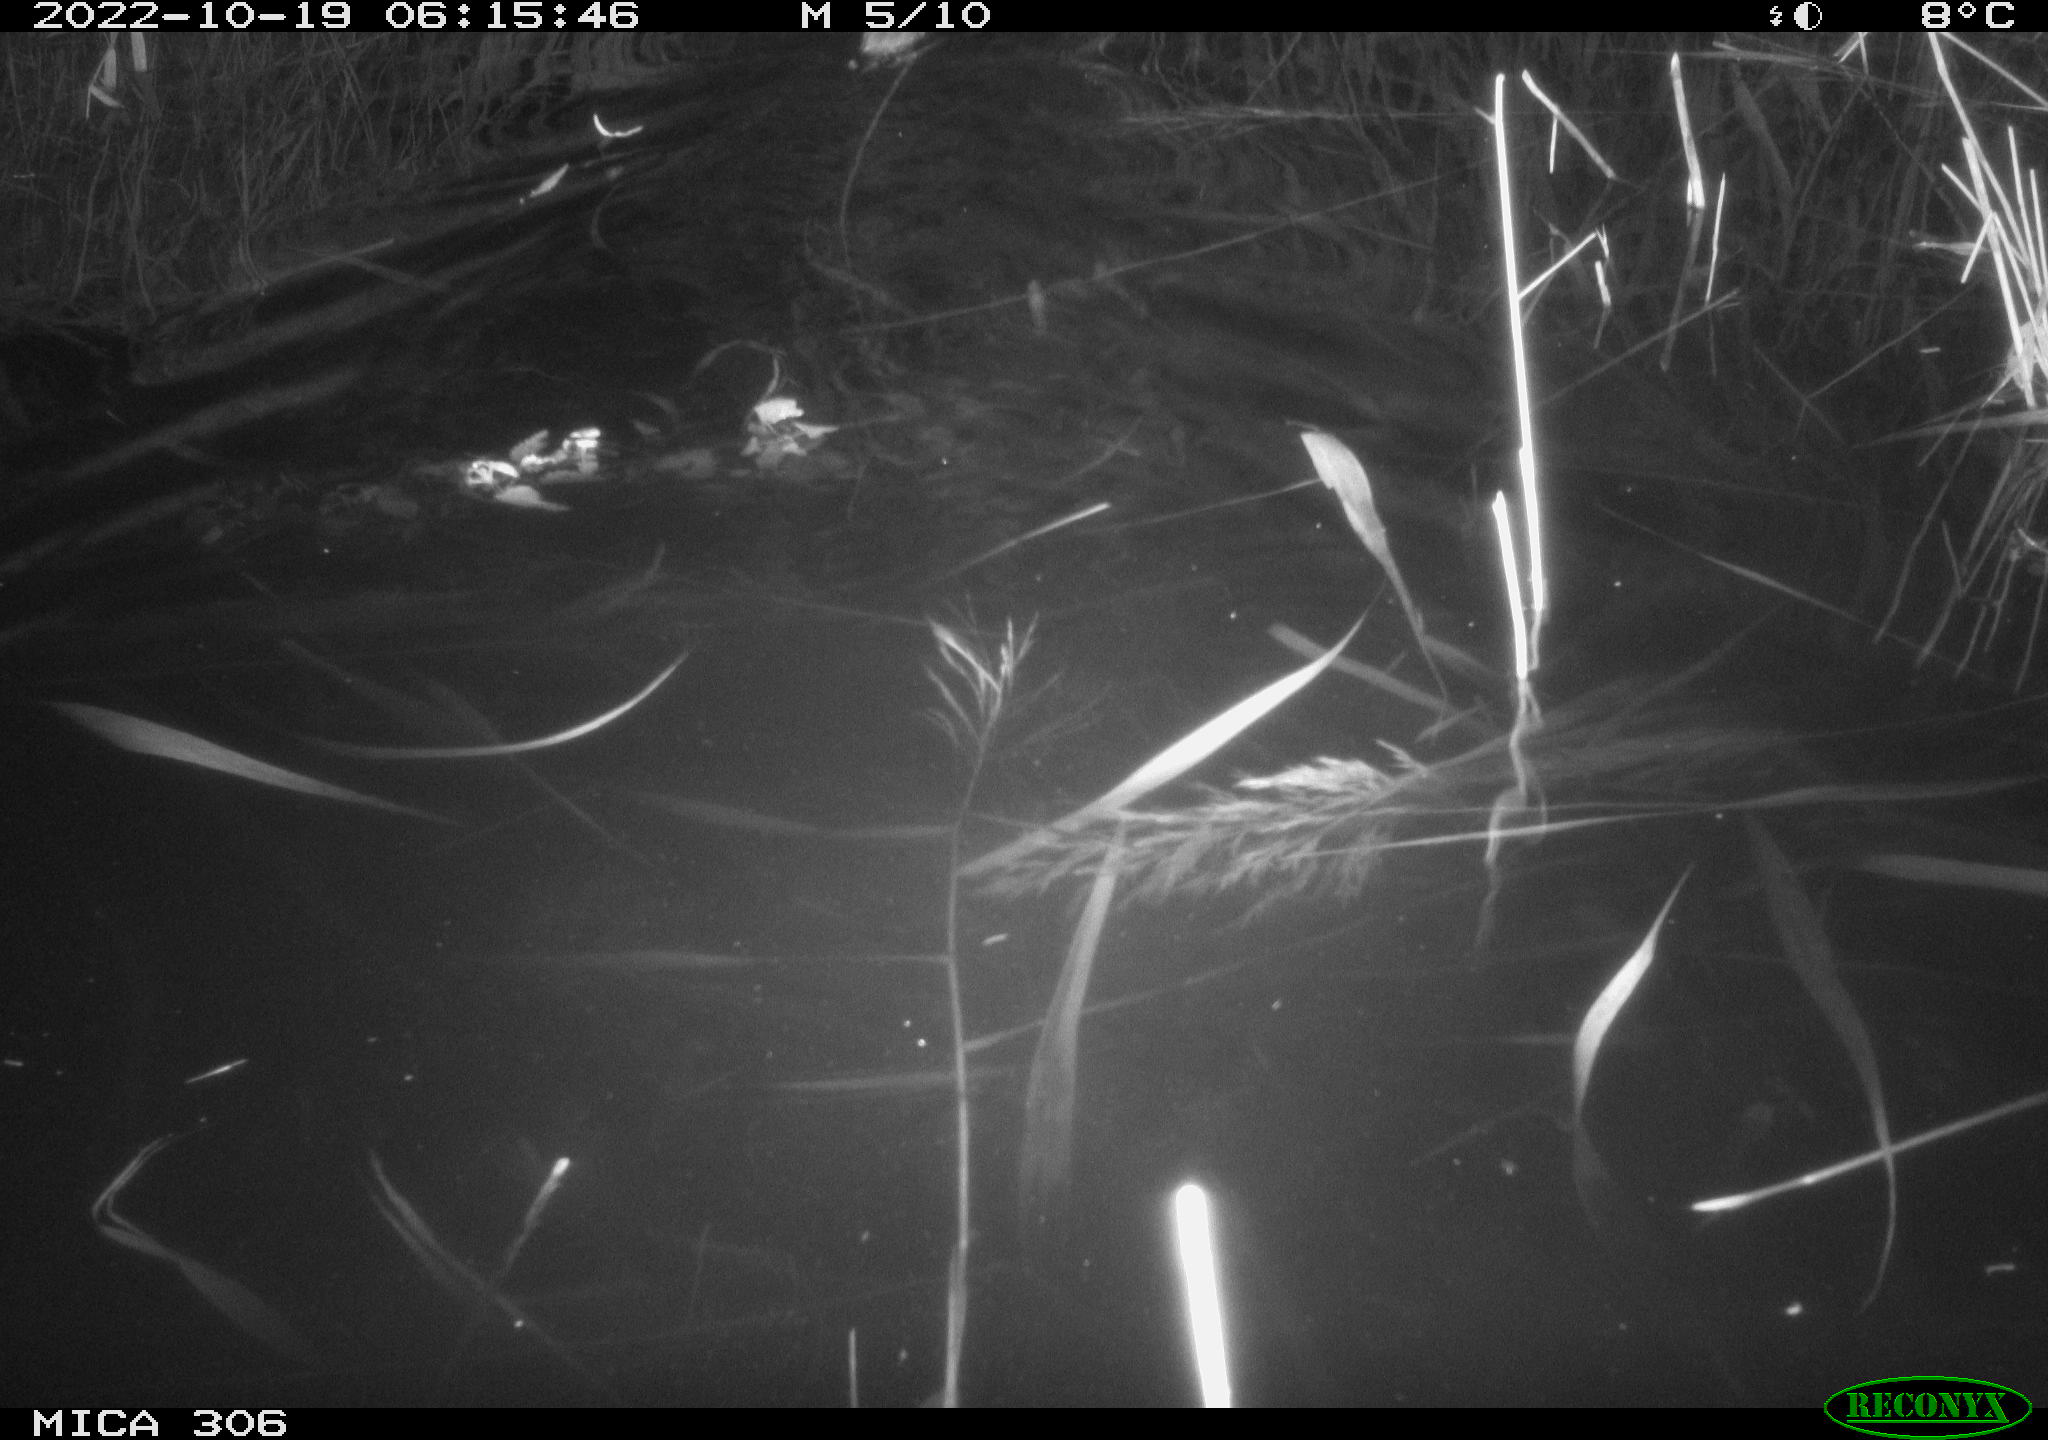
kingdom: Animalia
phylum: Chordata
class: Mammalia
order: Rodentia
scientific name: Rodentia
